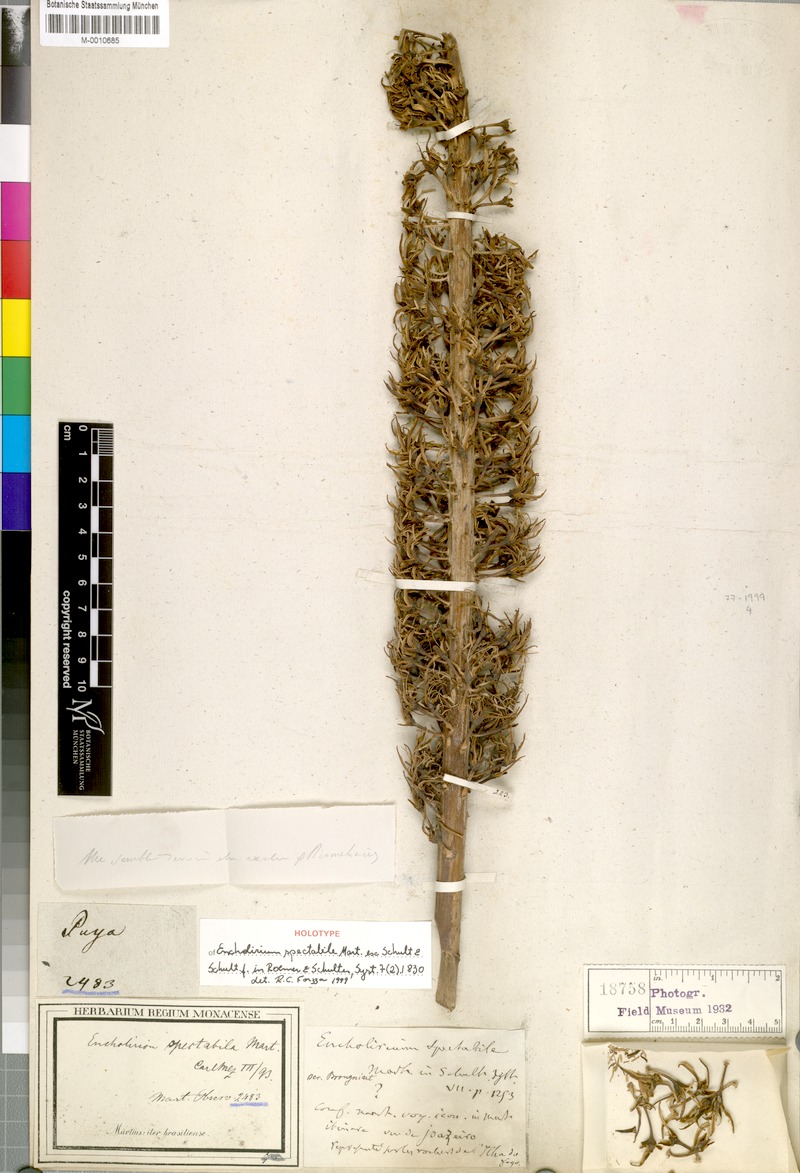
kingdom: Plantae
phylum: Tracheophyta
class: Liliopsida
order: Poales
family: Bromeliaceae
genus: Encholirium
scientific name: Encholirium spectabile
